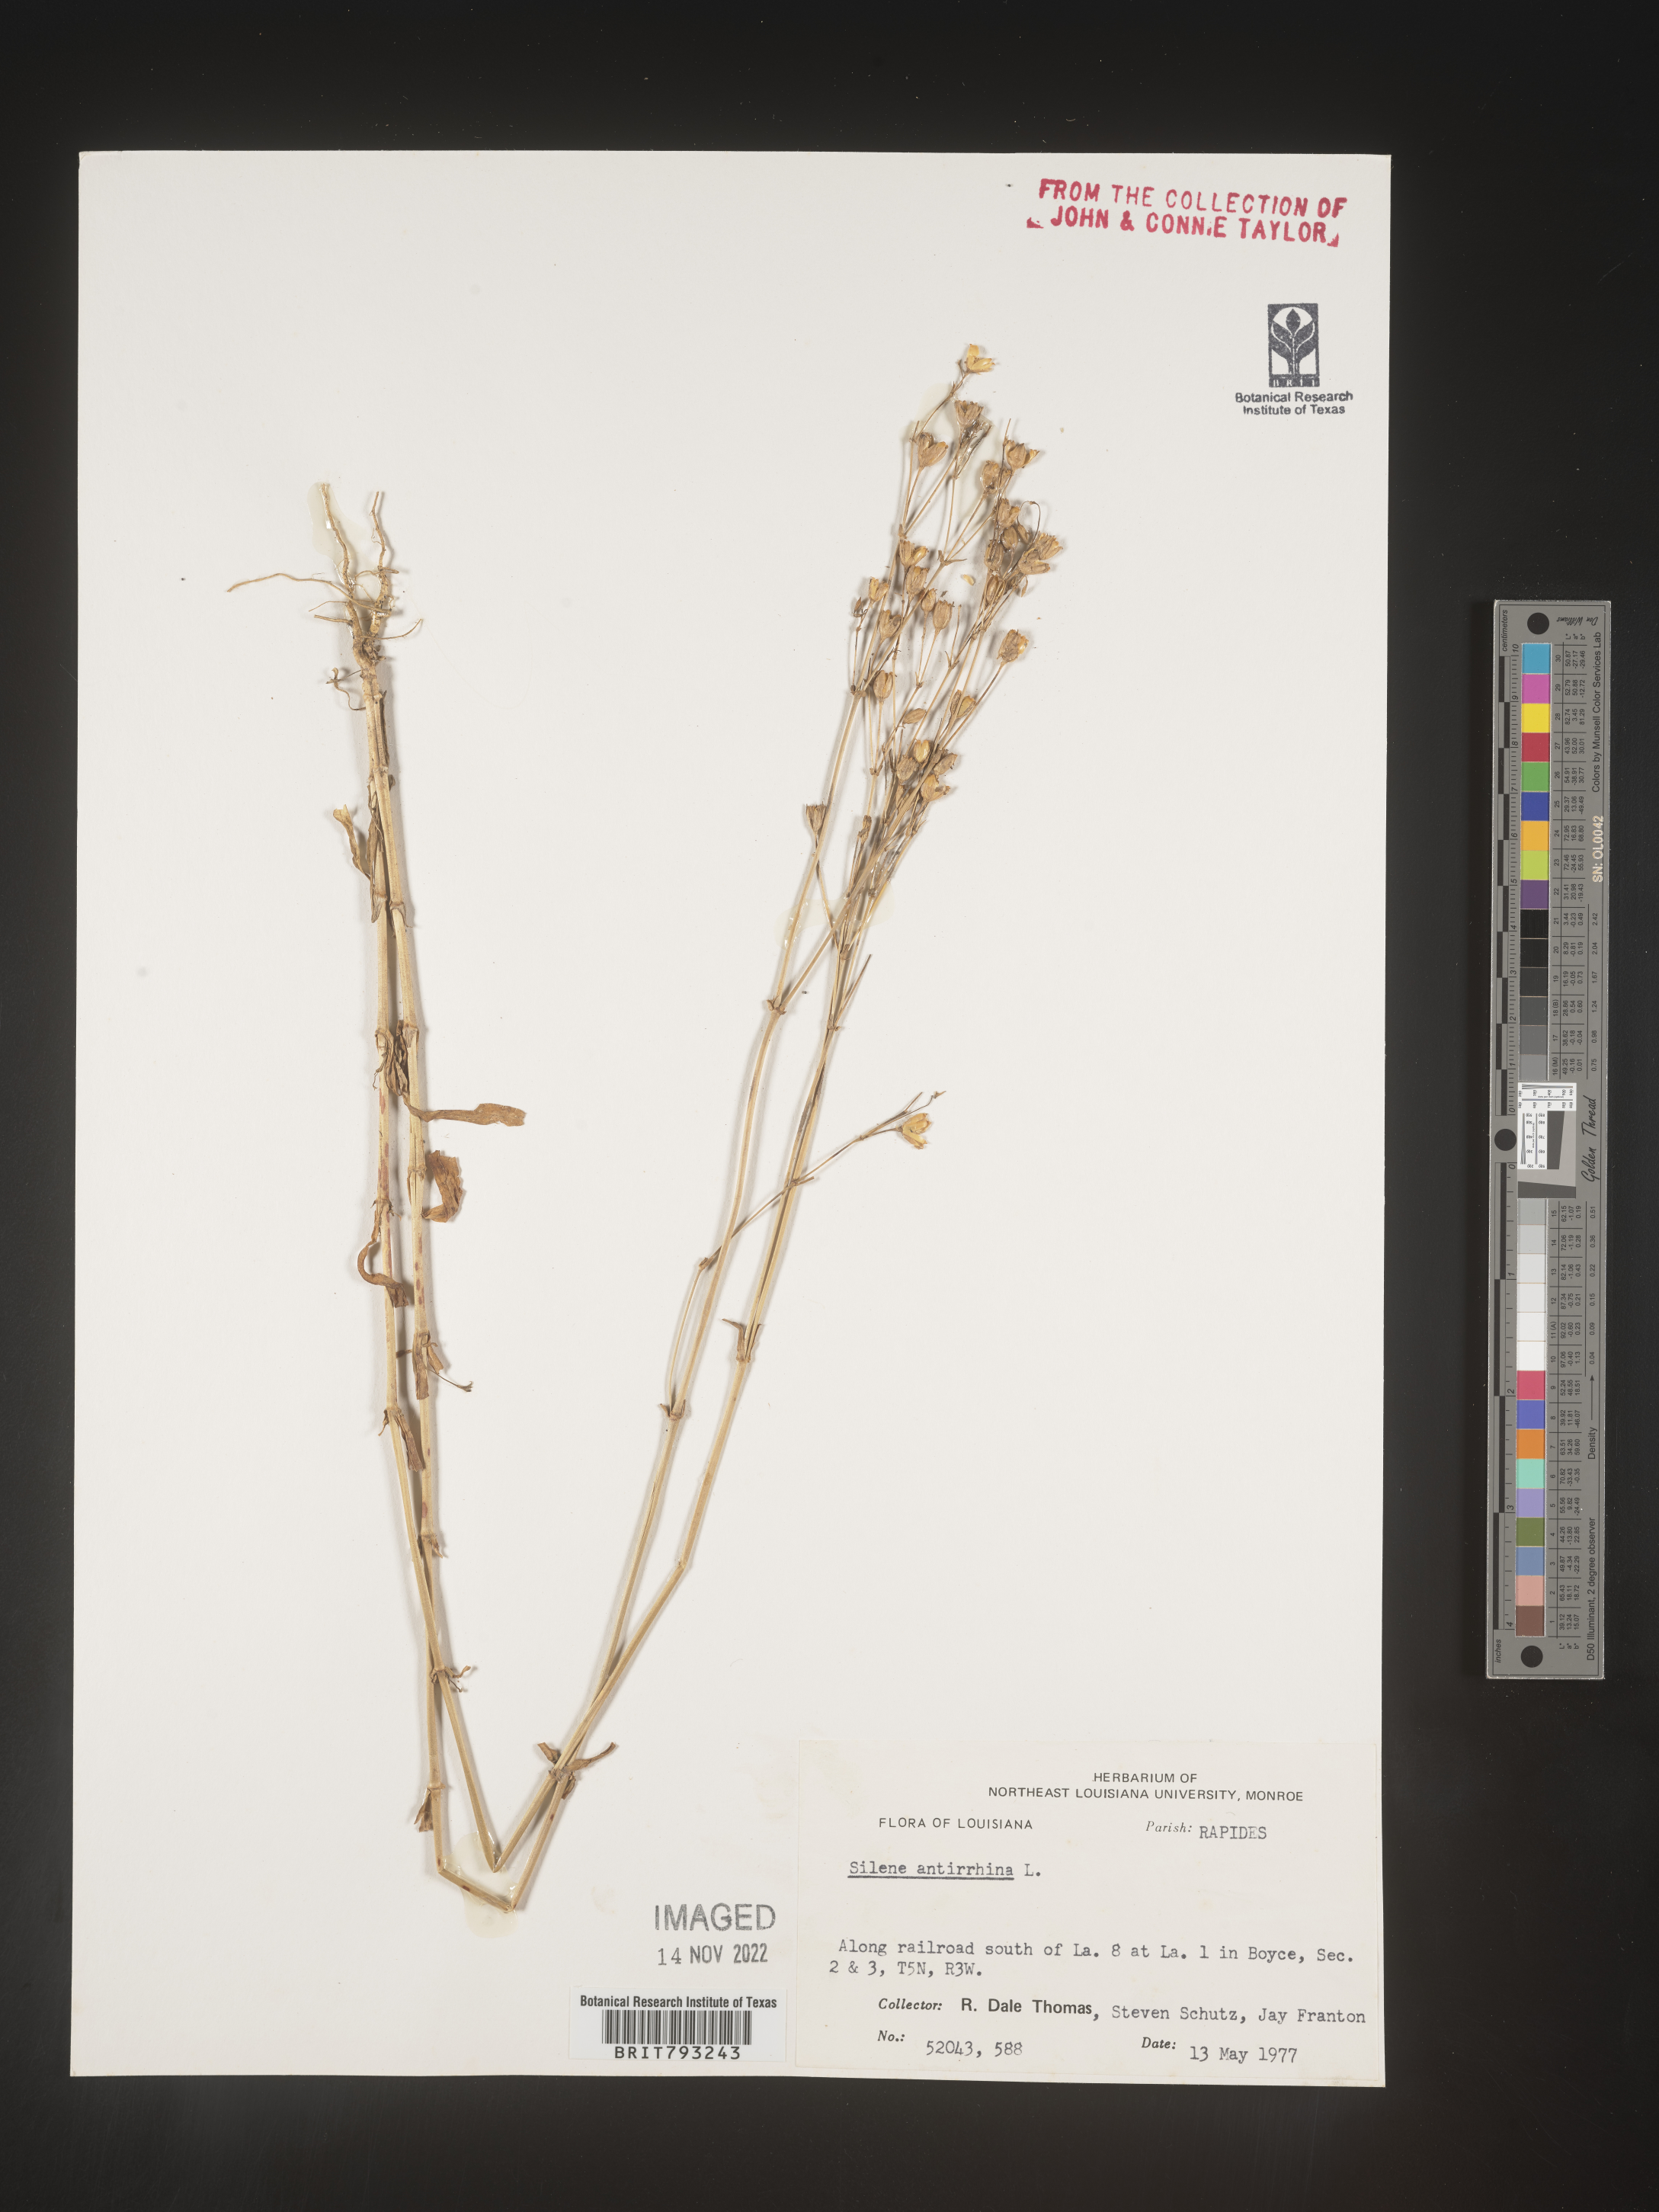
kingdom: Plantae
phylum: Tracheophyta
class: Magnoliopsida
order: Caryophyllales
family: Caryophyllaceae
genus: Silene
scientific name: Silene antirrhina
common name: Sleepy catchfly
